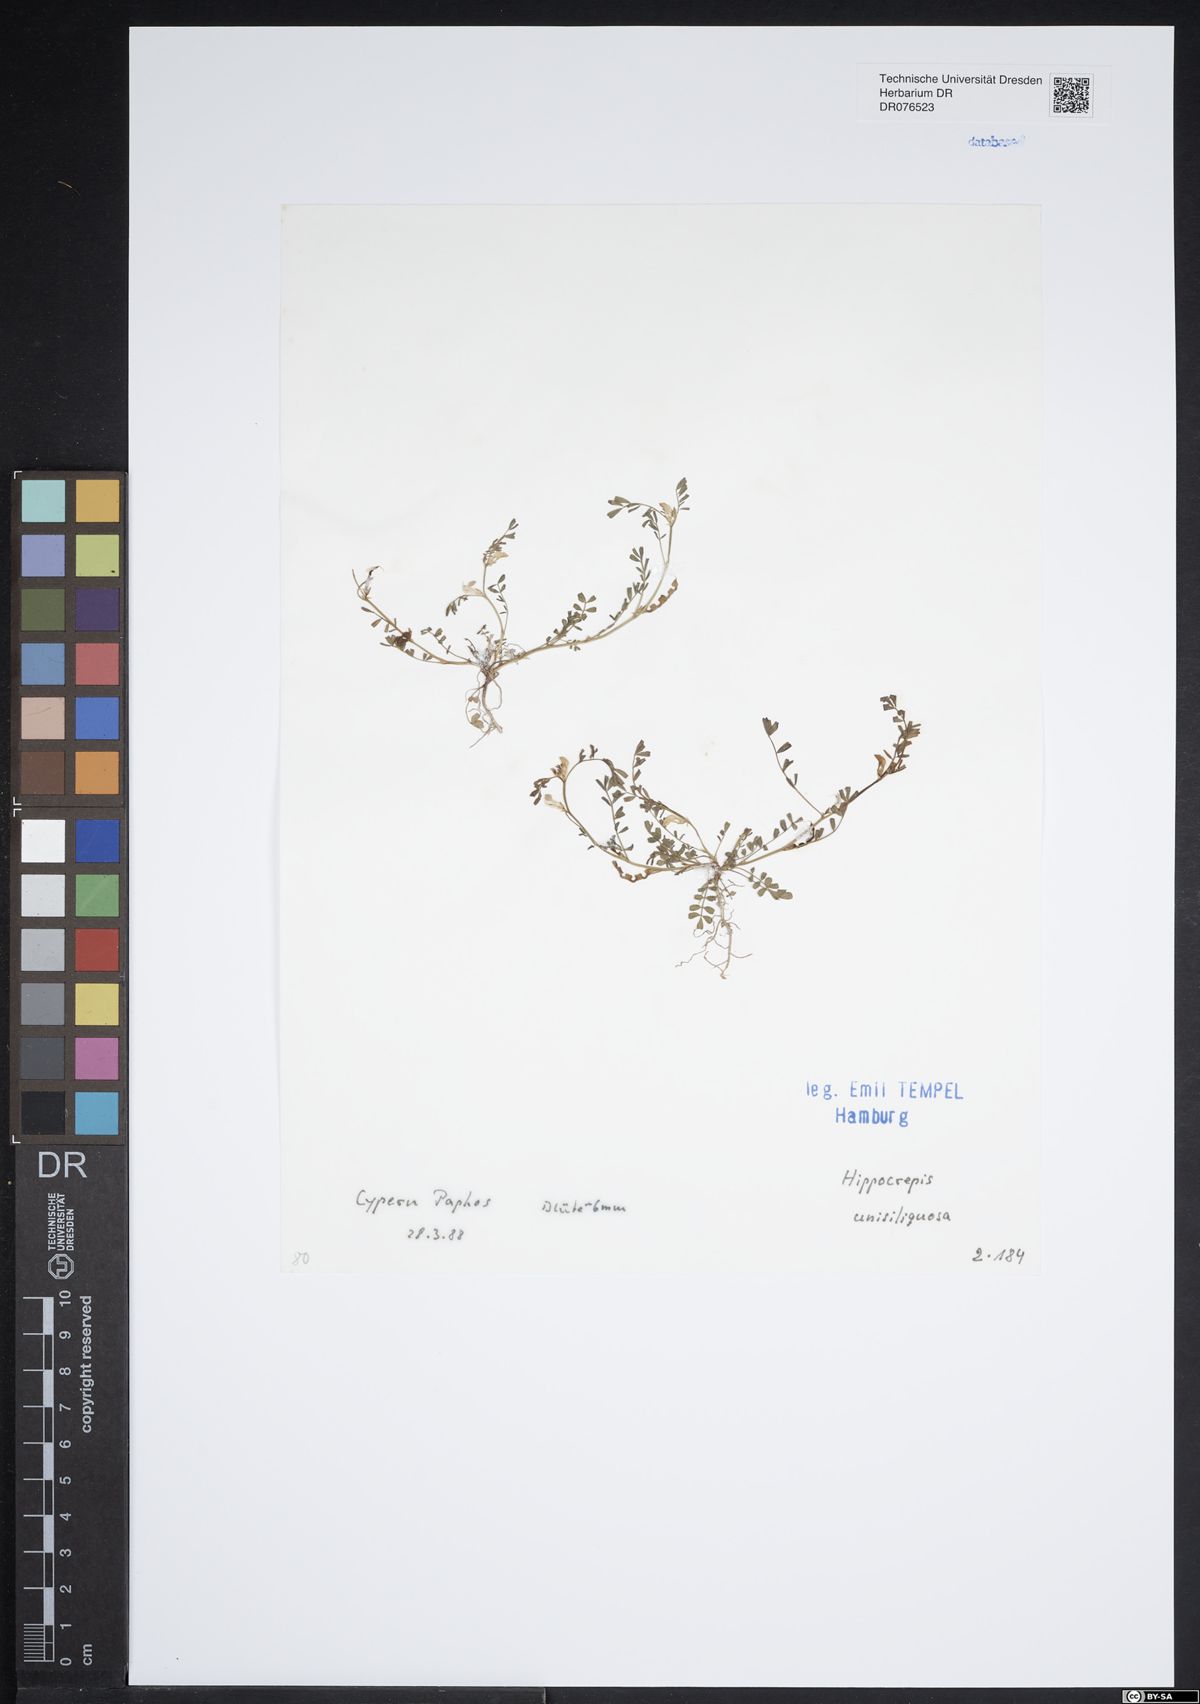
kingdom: Plantae
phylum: Tracheophyta
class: Magnoliopsida
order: Fabales
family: Fabaceae
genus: Hippocrepis
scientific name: Hippocrepis unisiliquosa
